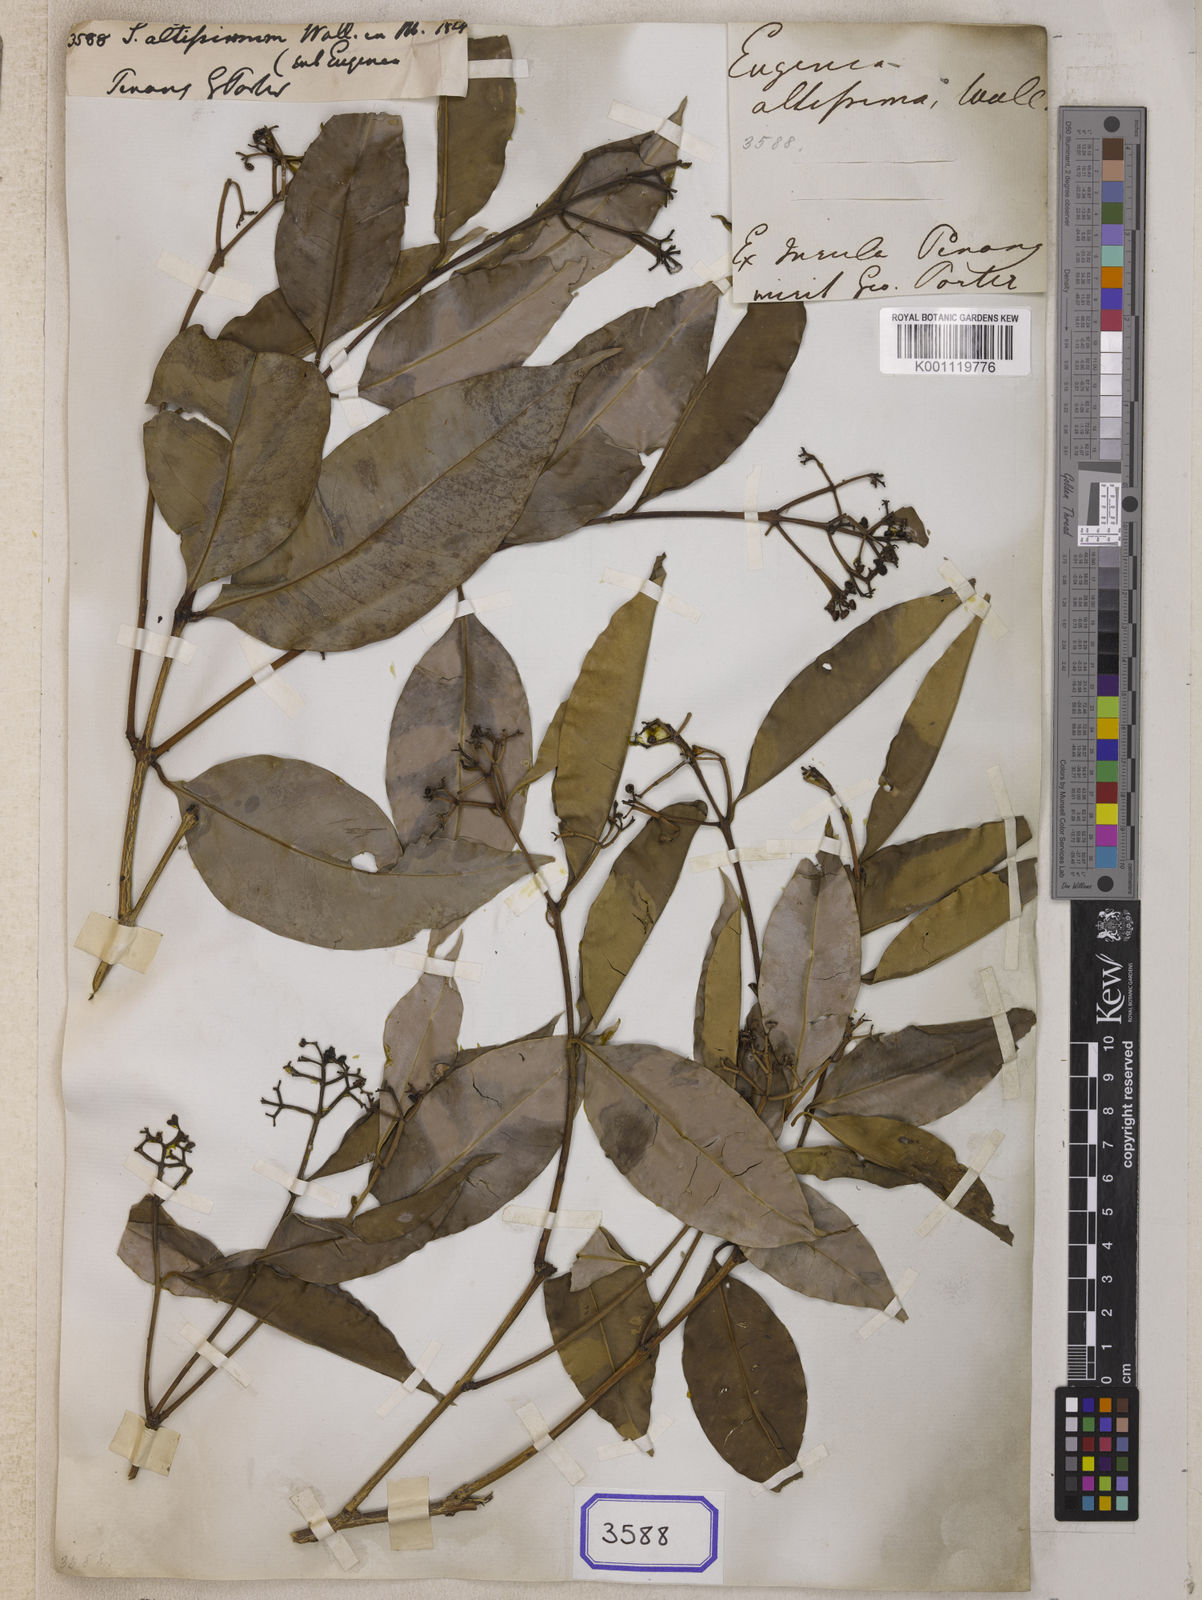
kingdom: Plantae
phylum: Tracheophyta
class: Magnoliopsida
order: Myrtales
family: Myrtaceae
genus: Syzygium
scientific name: Syzygium
